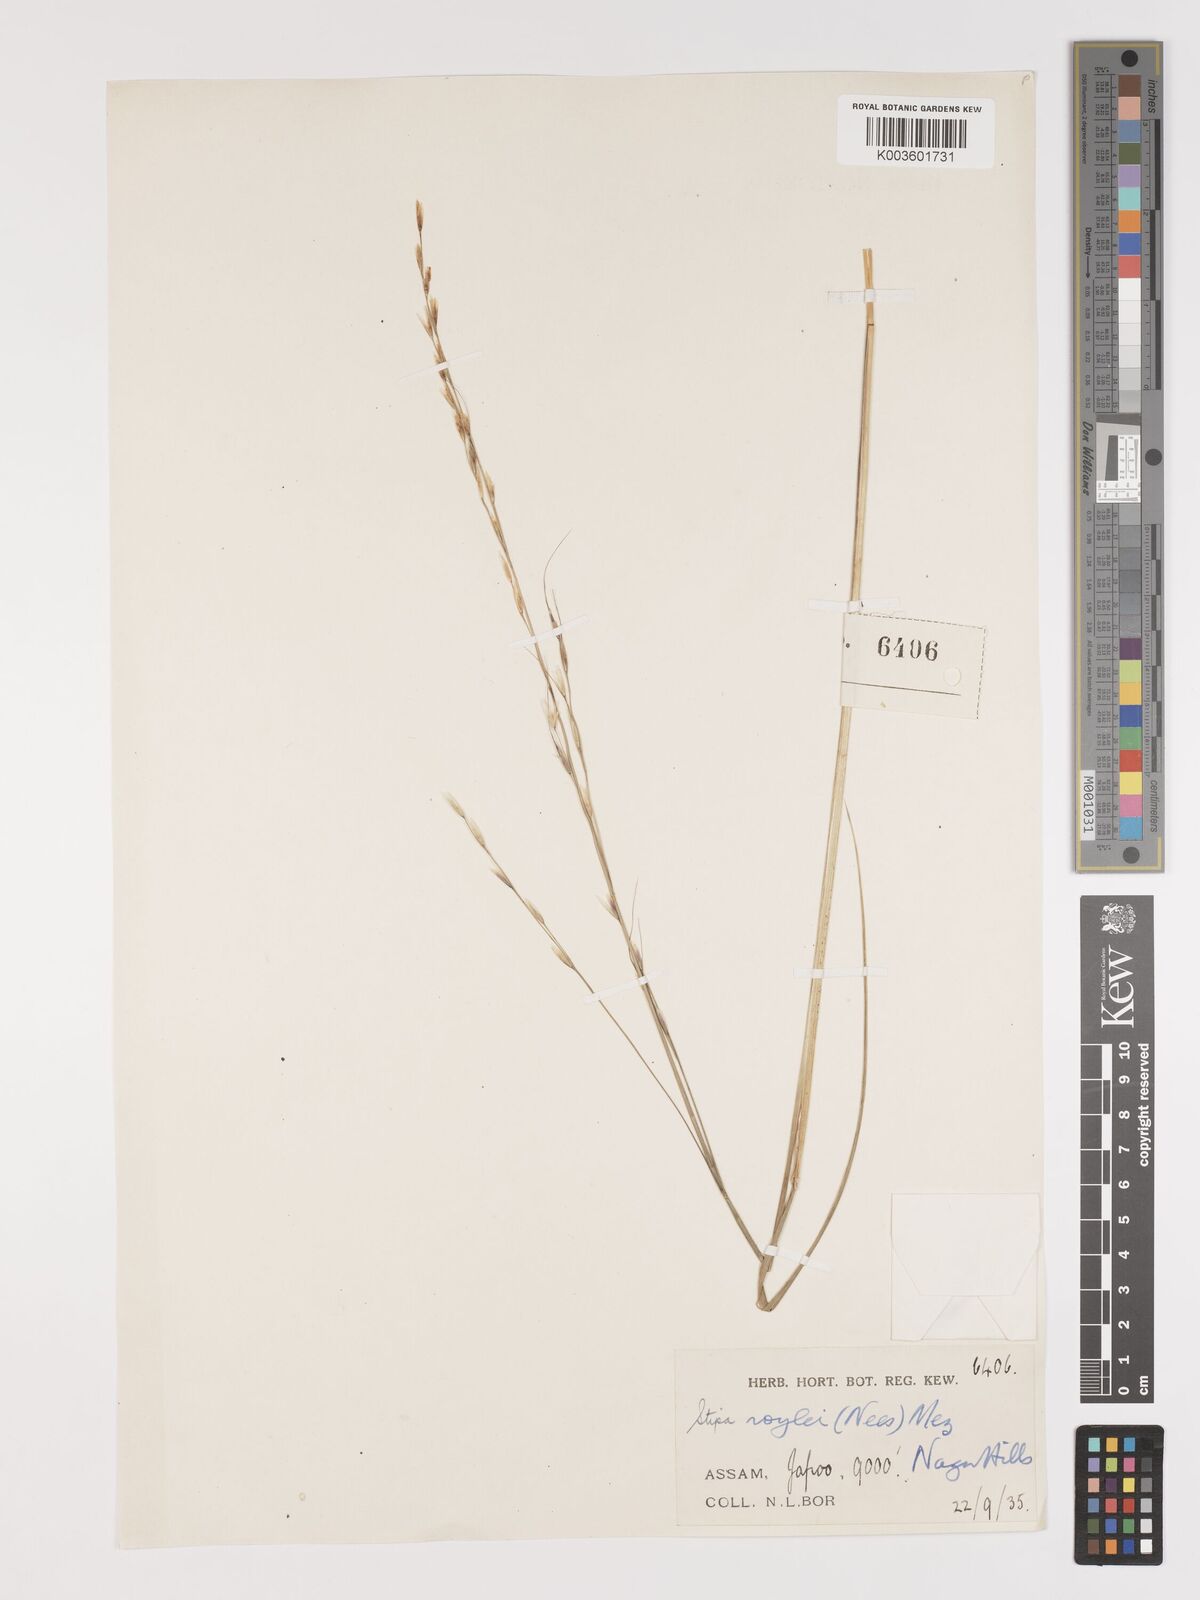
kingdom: Plantae
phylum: Tracheophyta
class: Liliopsida
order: Poales
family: Poaceae
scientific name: Poaceae
